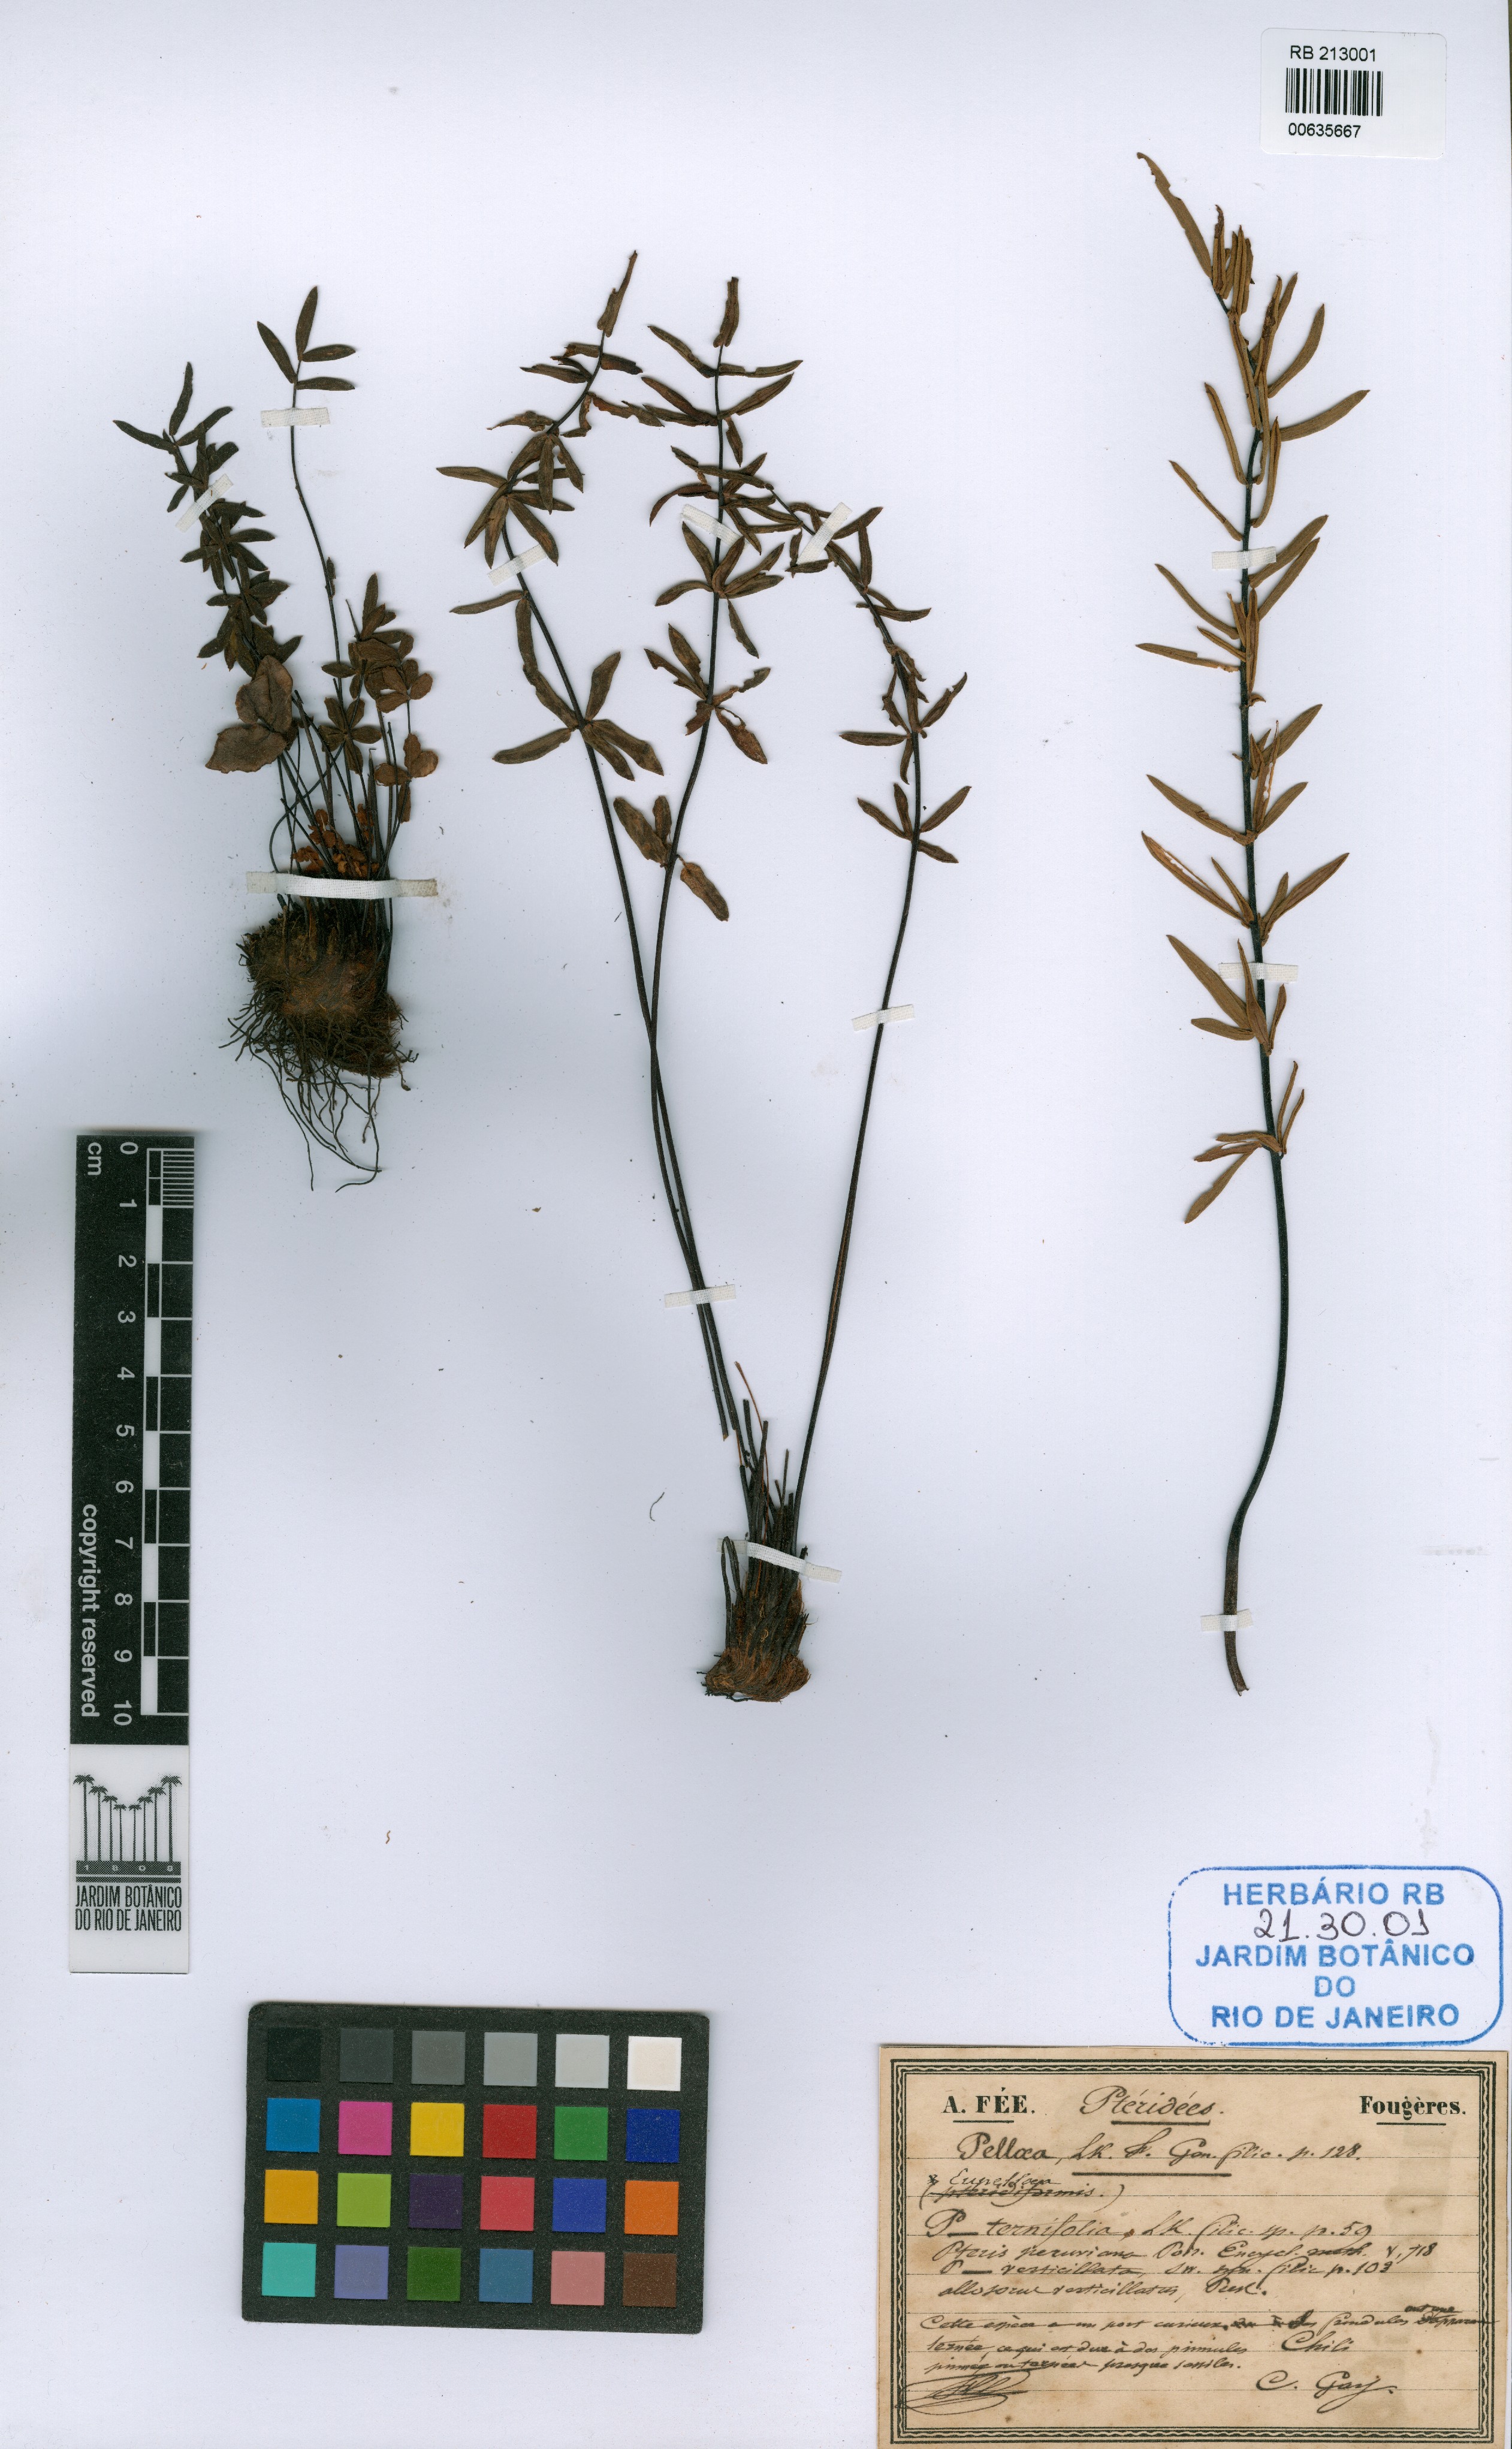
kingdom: Plantae
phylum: Tracheophyta
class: Polypodiopsida
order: Polypodiales
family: Pteridaceae
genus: Pellaea
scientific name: Pellaea ternifolia
